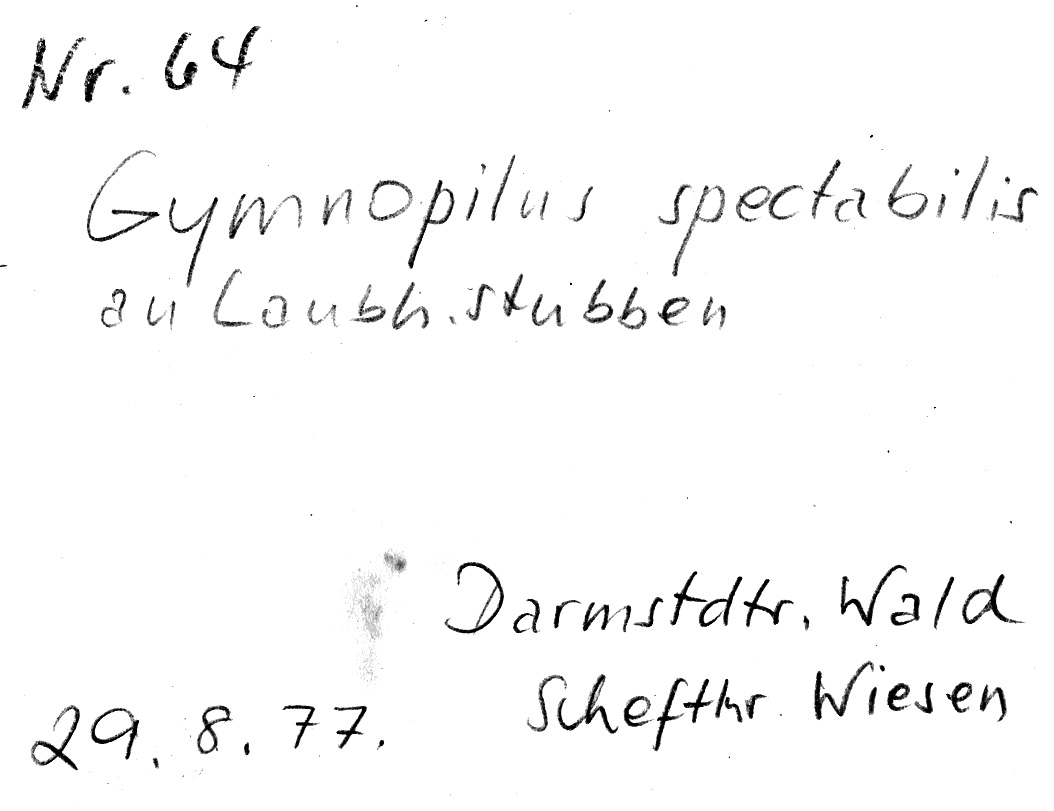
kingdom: Fungi
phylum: Basidiomycota
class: Agaricomycetes
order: Agaricales
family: Tricholomataceae
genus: Phaeolepiota
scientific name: Phaeolepiota aurea
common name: Golden bootleg
